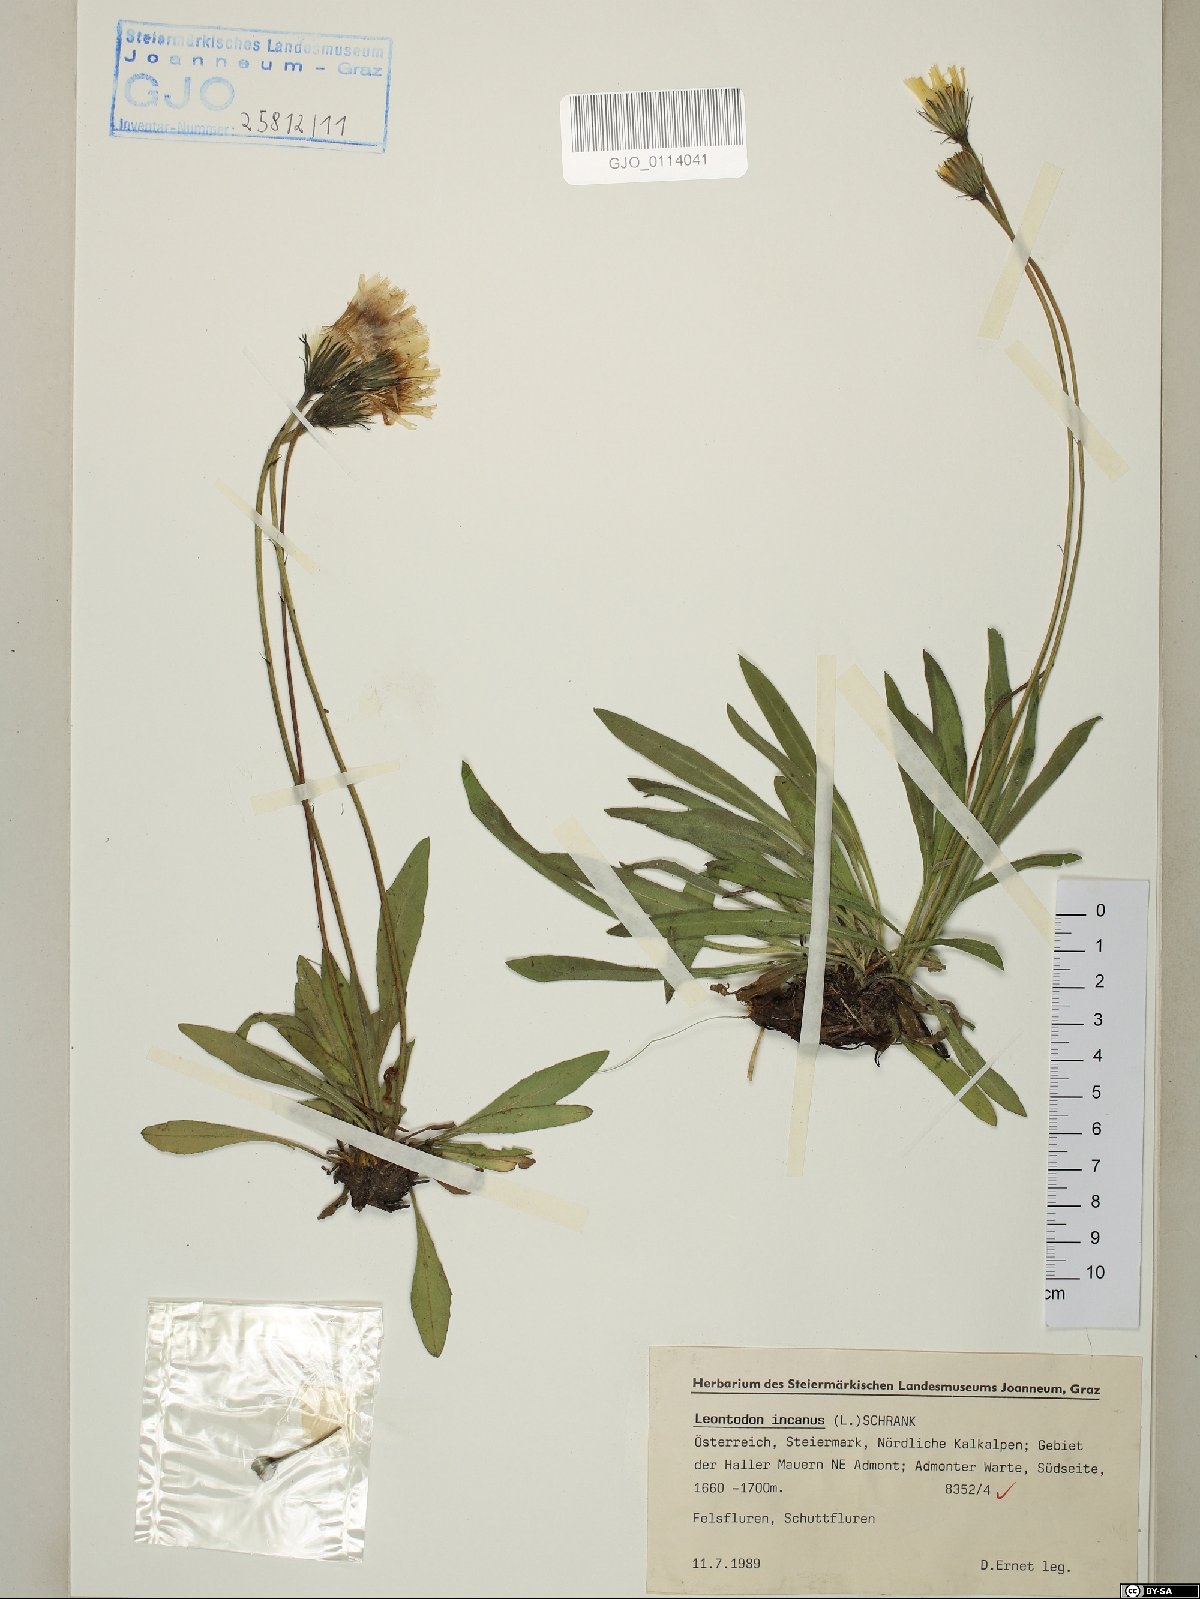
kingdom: Plantae
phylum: Tracheophyta
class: Magnoliopsida
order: Asterales
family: Asteraceae
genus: Leontodon
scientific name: Leontodon incanus
